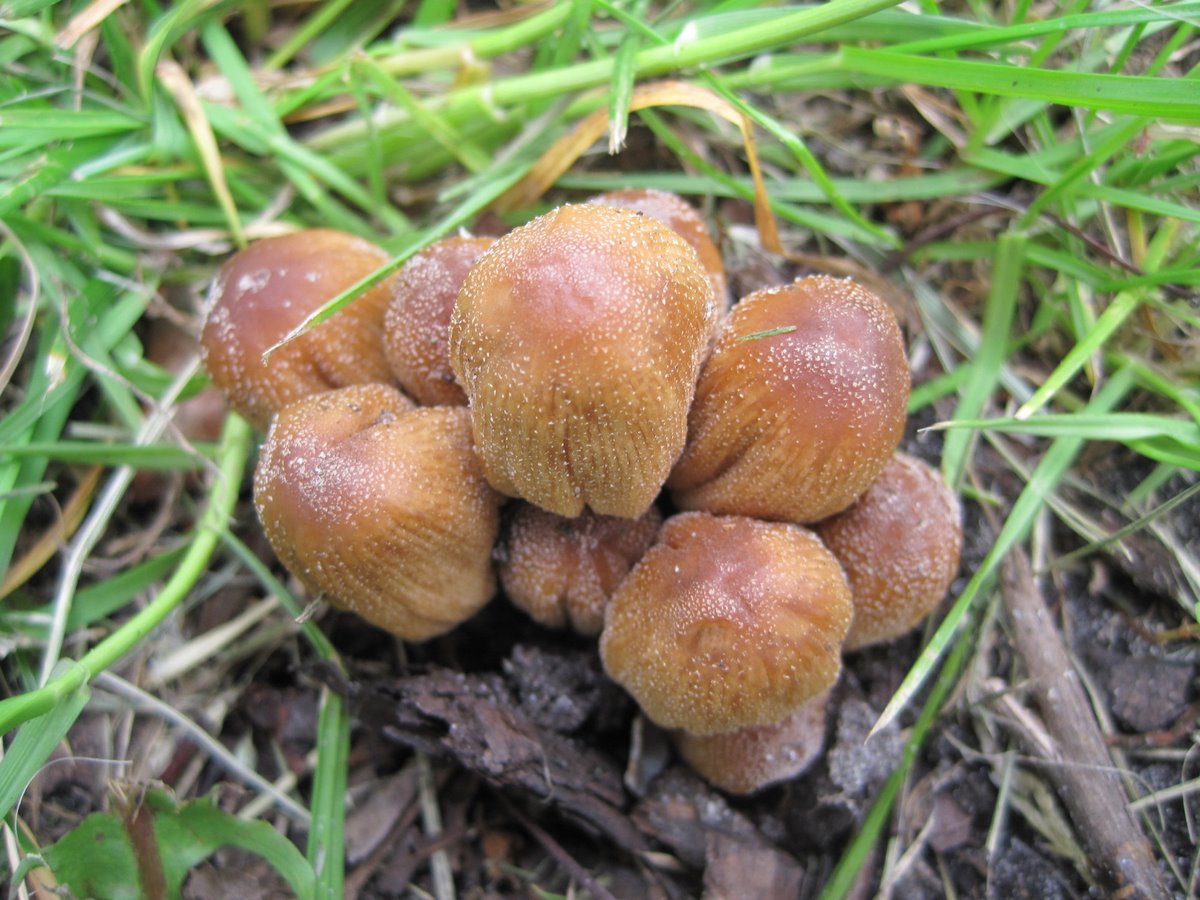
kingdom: Fungi
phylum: Basidiomycota
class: Agaricomycetes
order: Agaricales
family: Psathyrellaceae
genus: Coprinellus
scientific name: Coprinellus micaceus
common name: glimmer-blækhat
